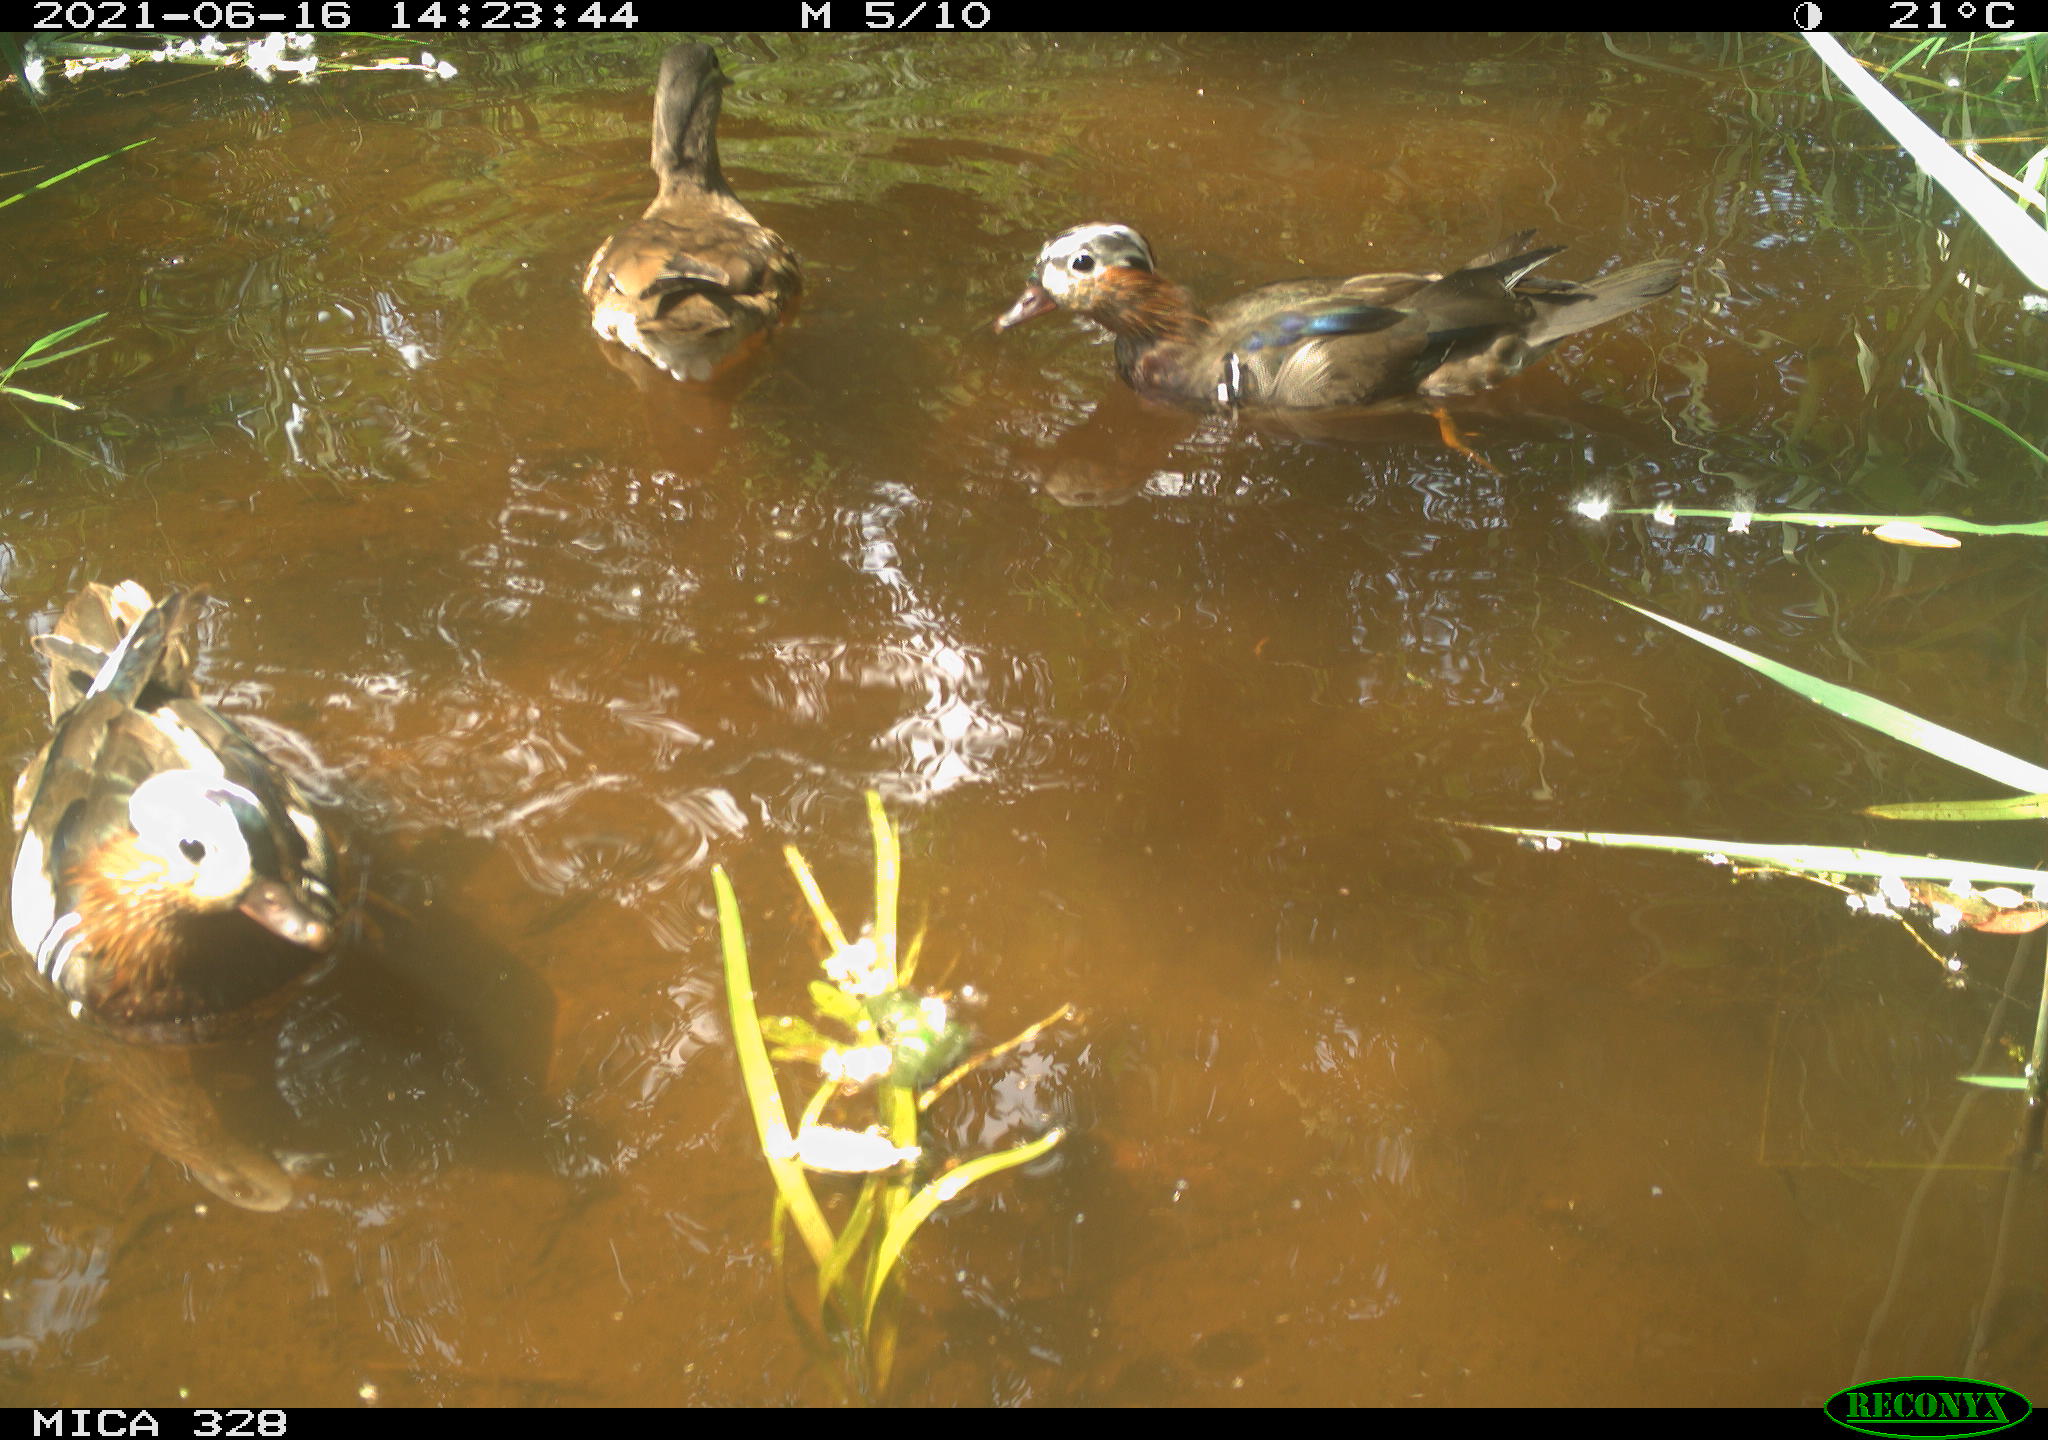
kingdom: Animalia
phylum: Chordata
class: Aves
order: Anseriformes
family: Anatidae
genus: Aix
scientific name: Aix galericulata
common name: Mandarin duck
